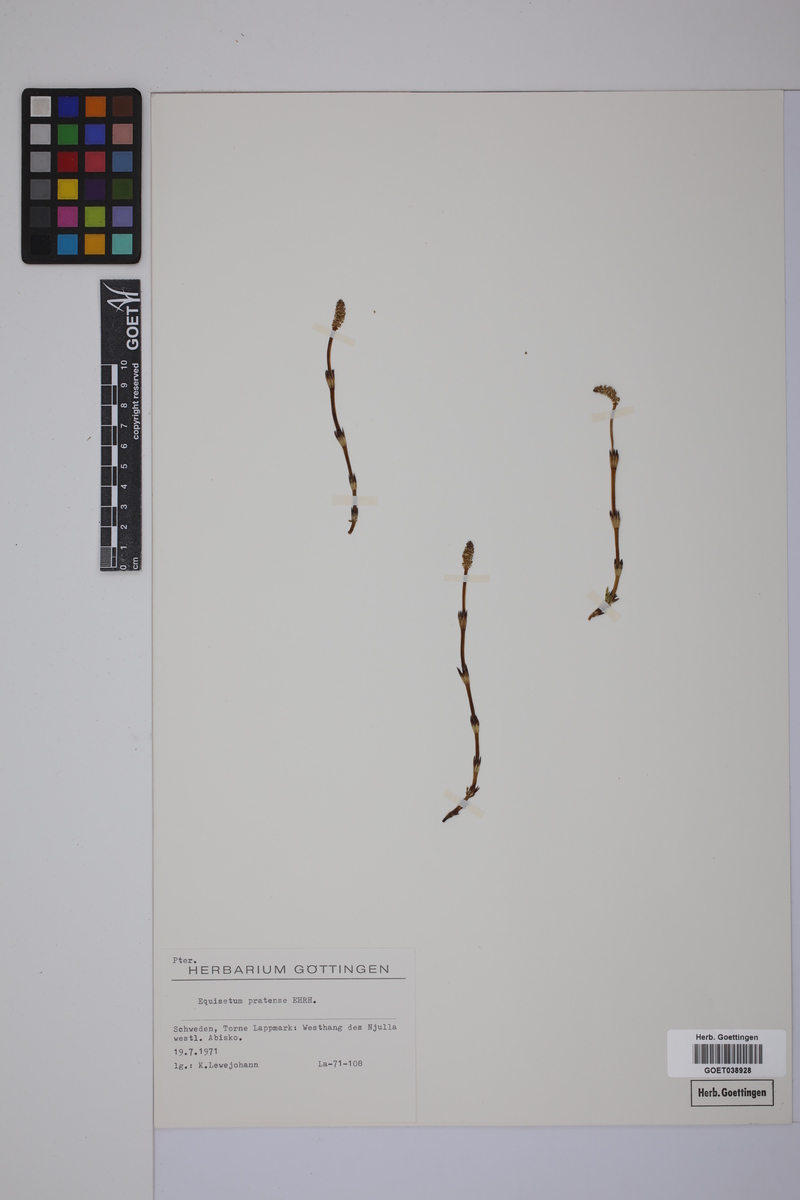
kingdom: Plantae
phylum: Tracheophyta
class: Polypodiopsida
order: Equisetales
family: Equisetaceae
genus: Equisetum
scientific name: Equisetum pratense
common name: Meadow horsetail
